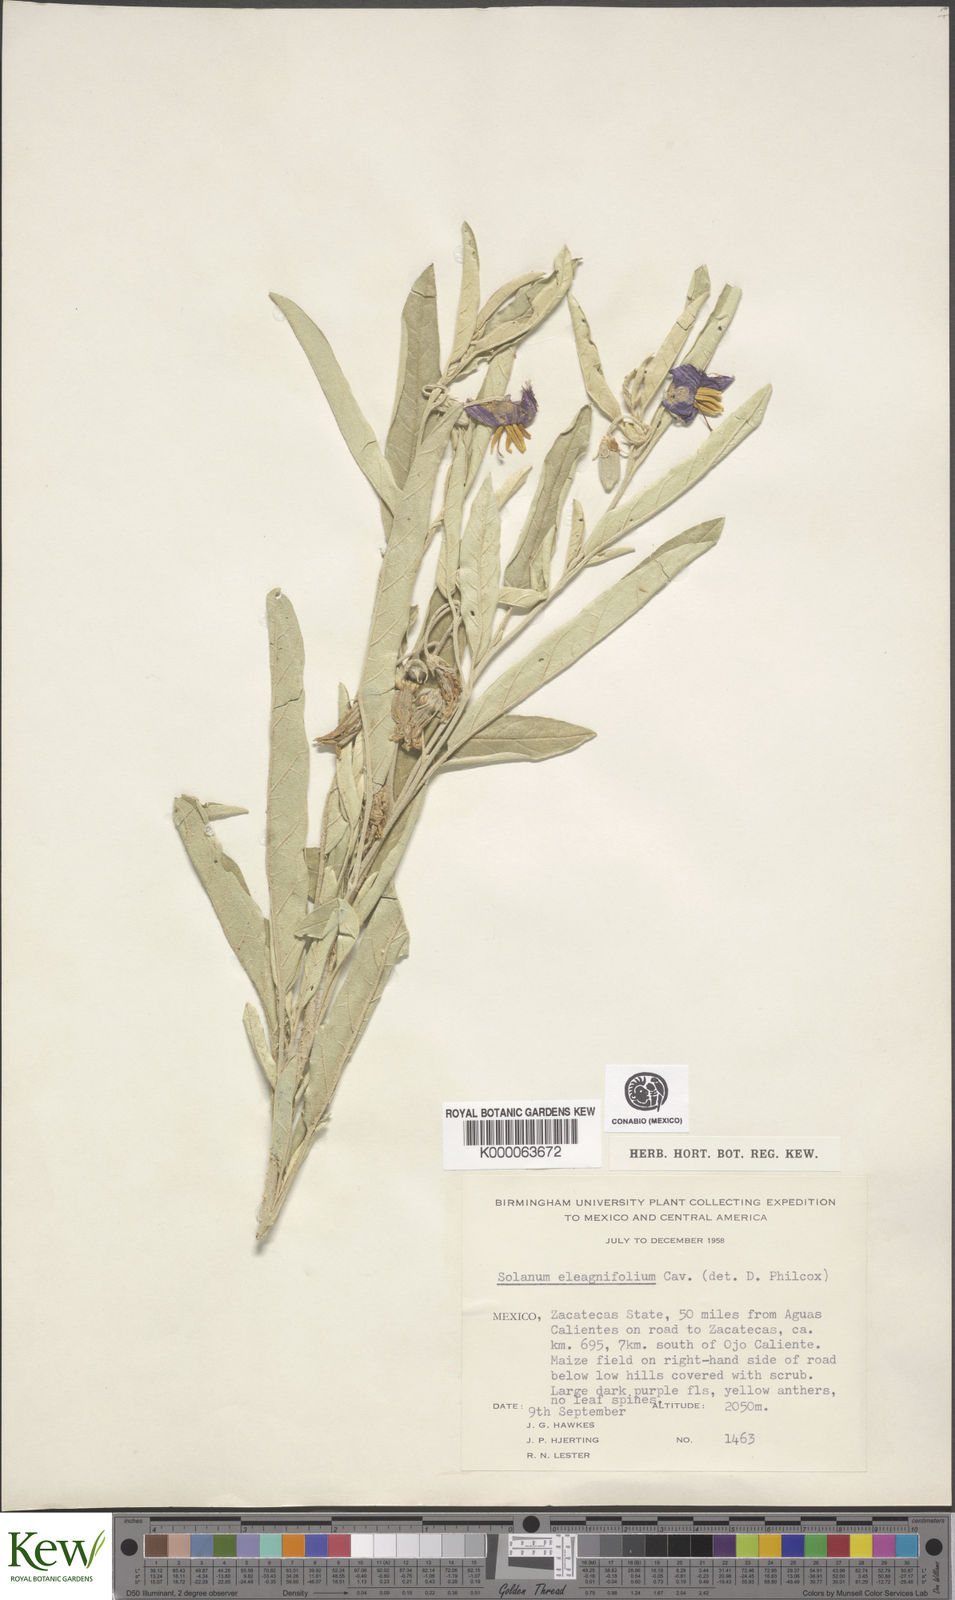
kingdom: Plantae
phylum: Tracheophyta
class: Magnoliopsida
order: Solanales
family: Solanaceae
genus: Solanum
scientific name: Solanum elaeagnifolium
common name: Silverleaf nightshade
